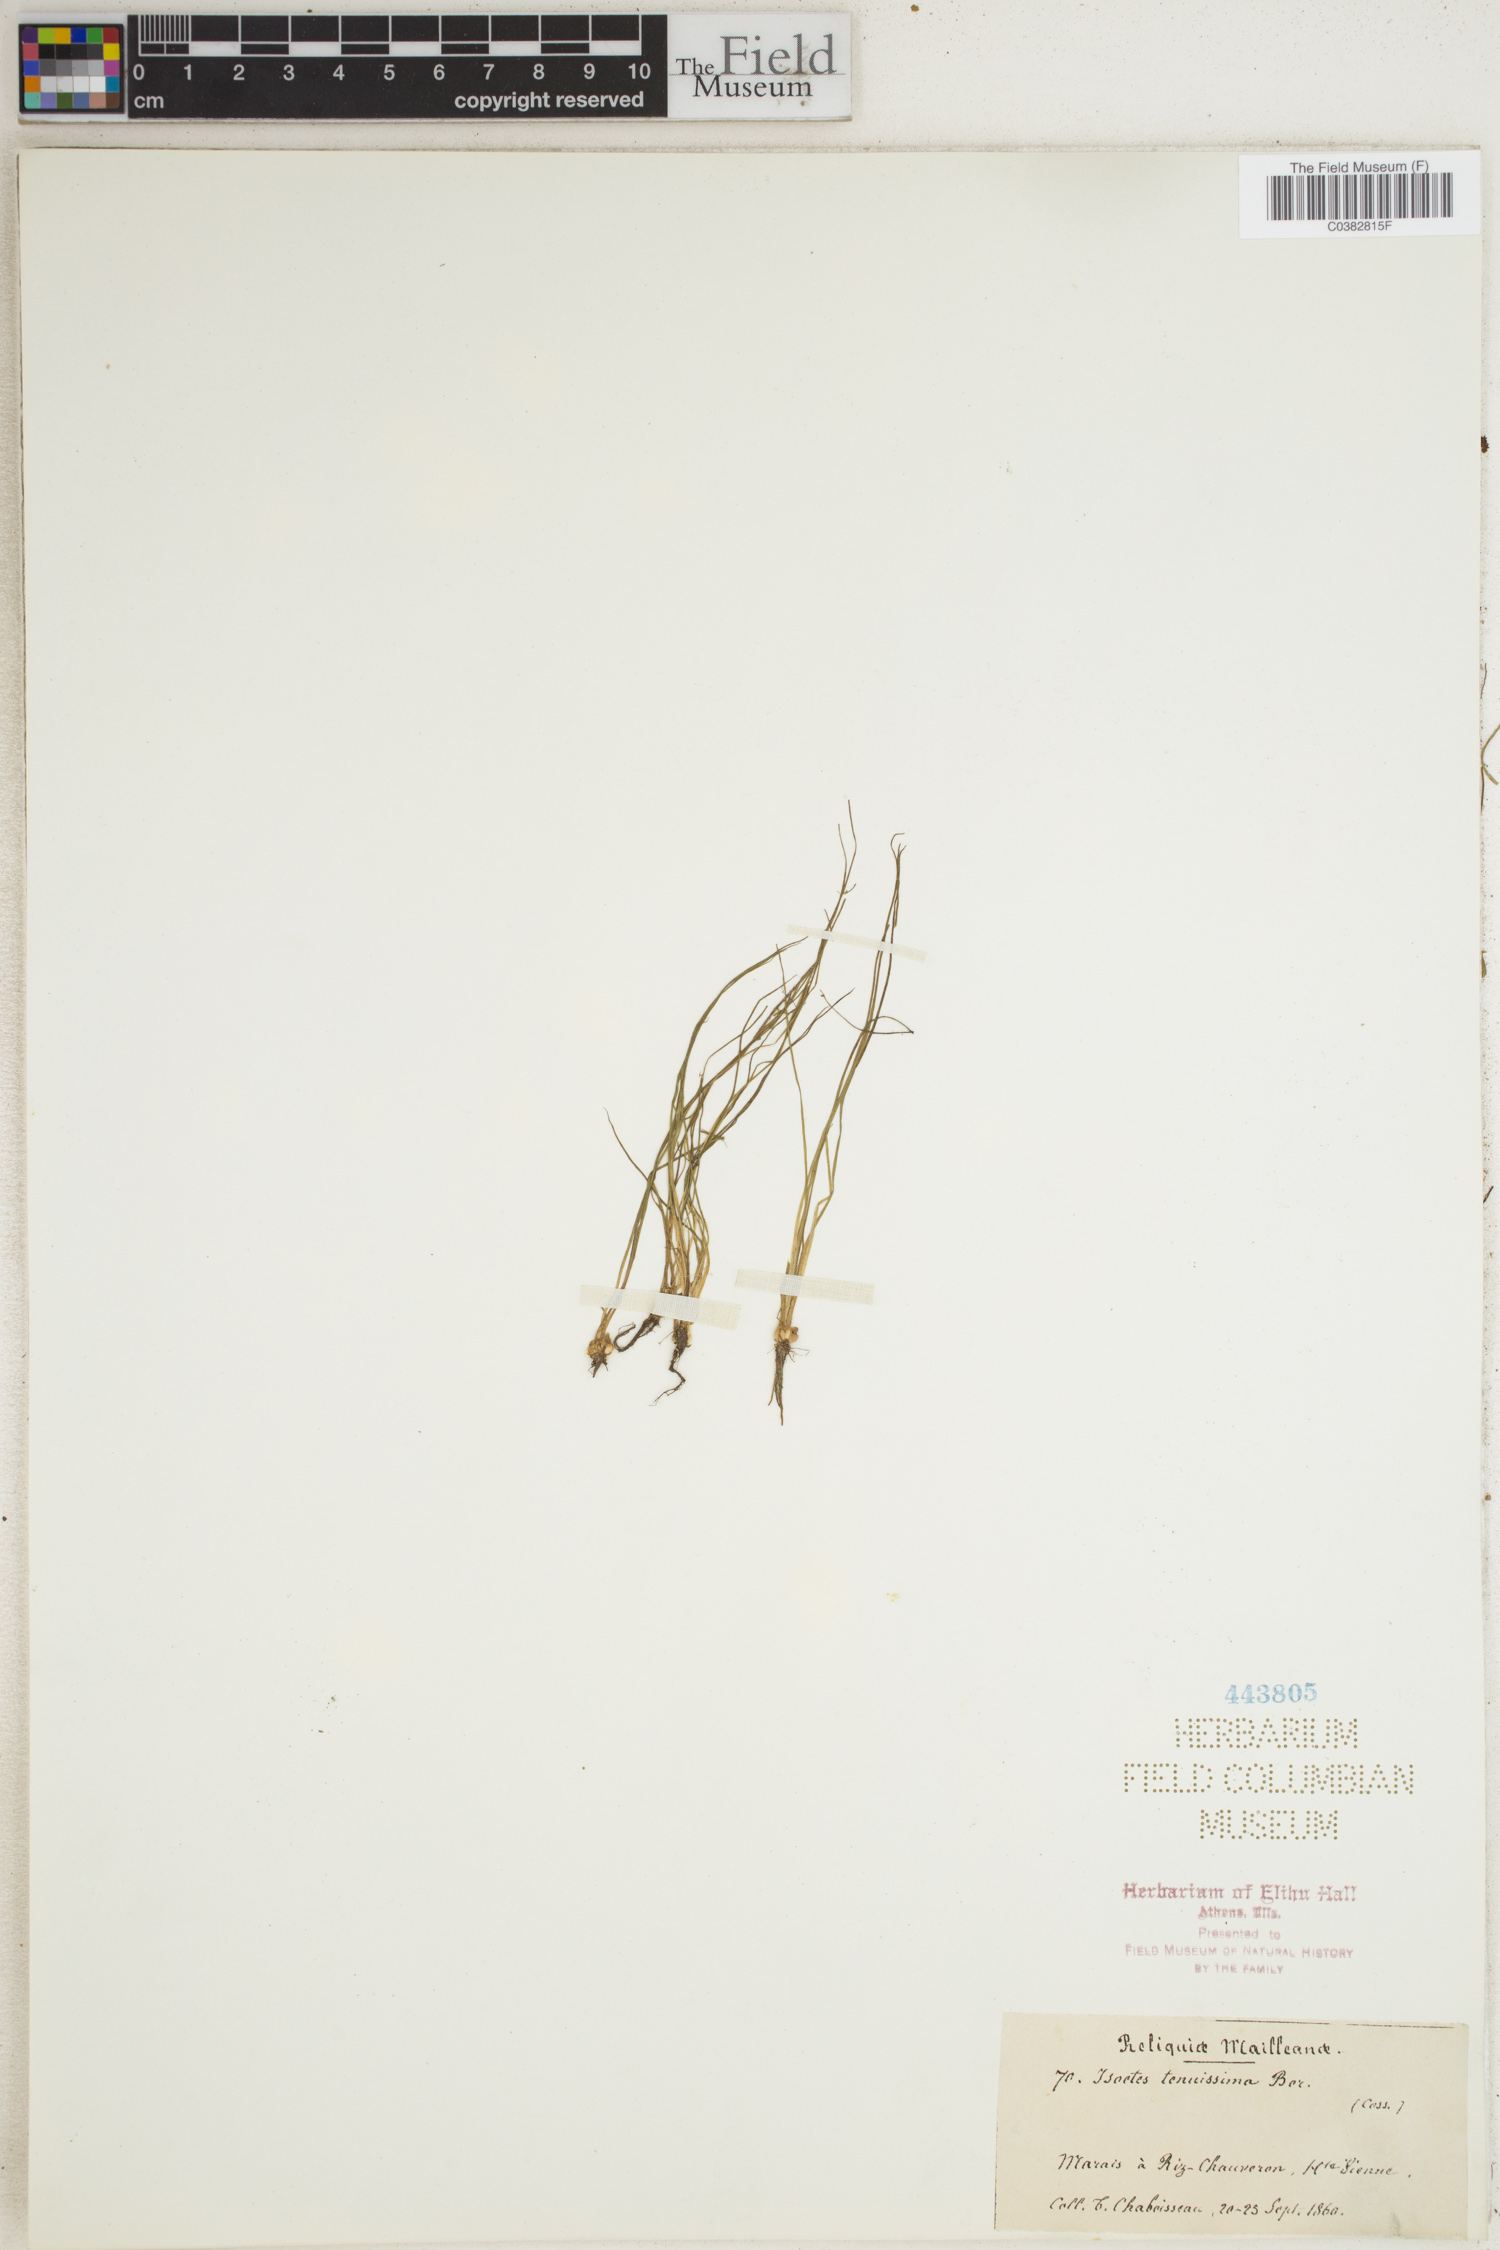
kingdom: Plantae
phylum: Tracheophyta
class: Lycopodiopsida
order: Isoetales
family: Isoetaceae
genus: Isoetes
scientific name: Isoetes longissima
